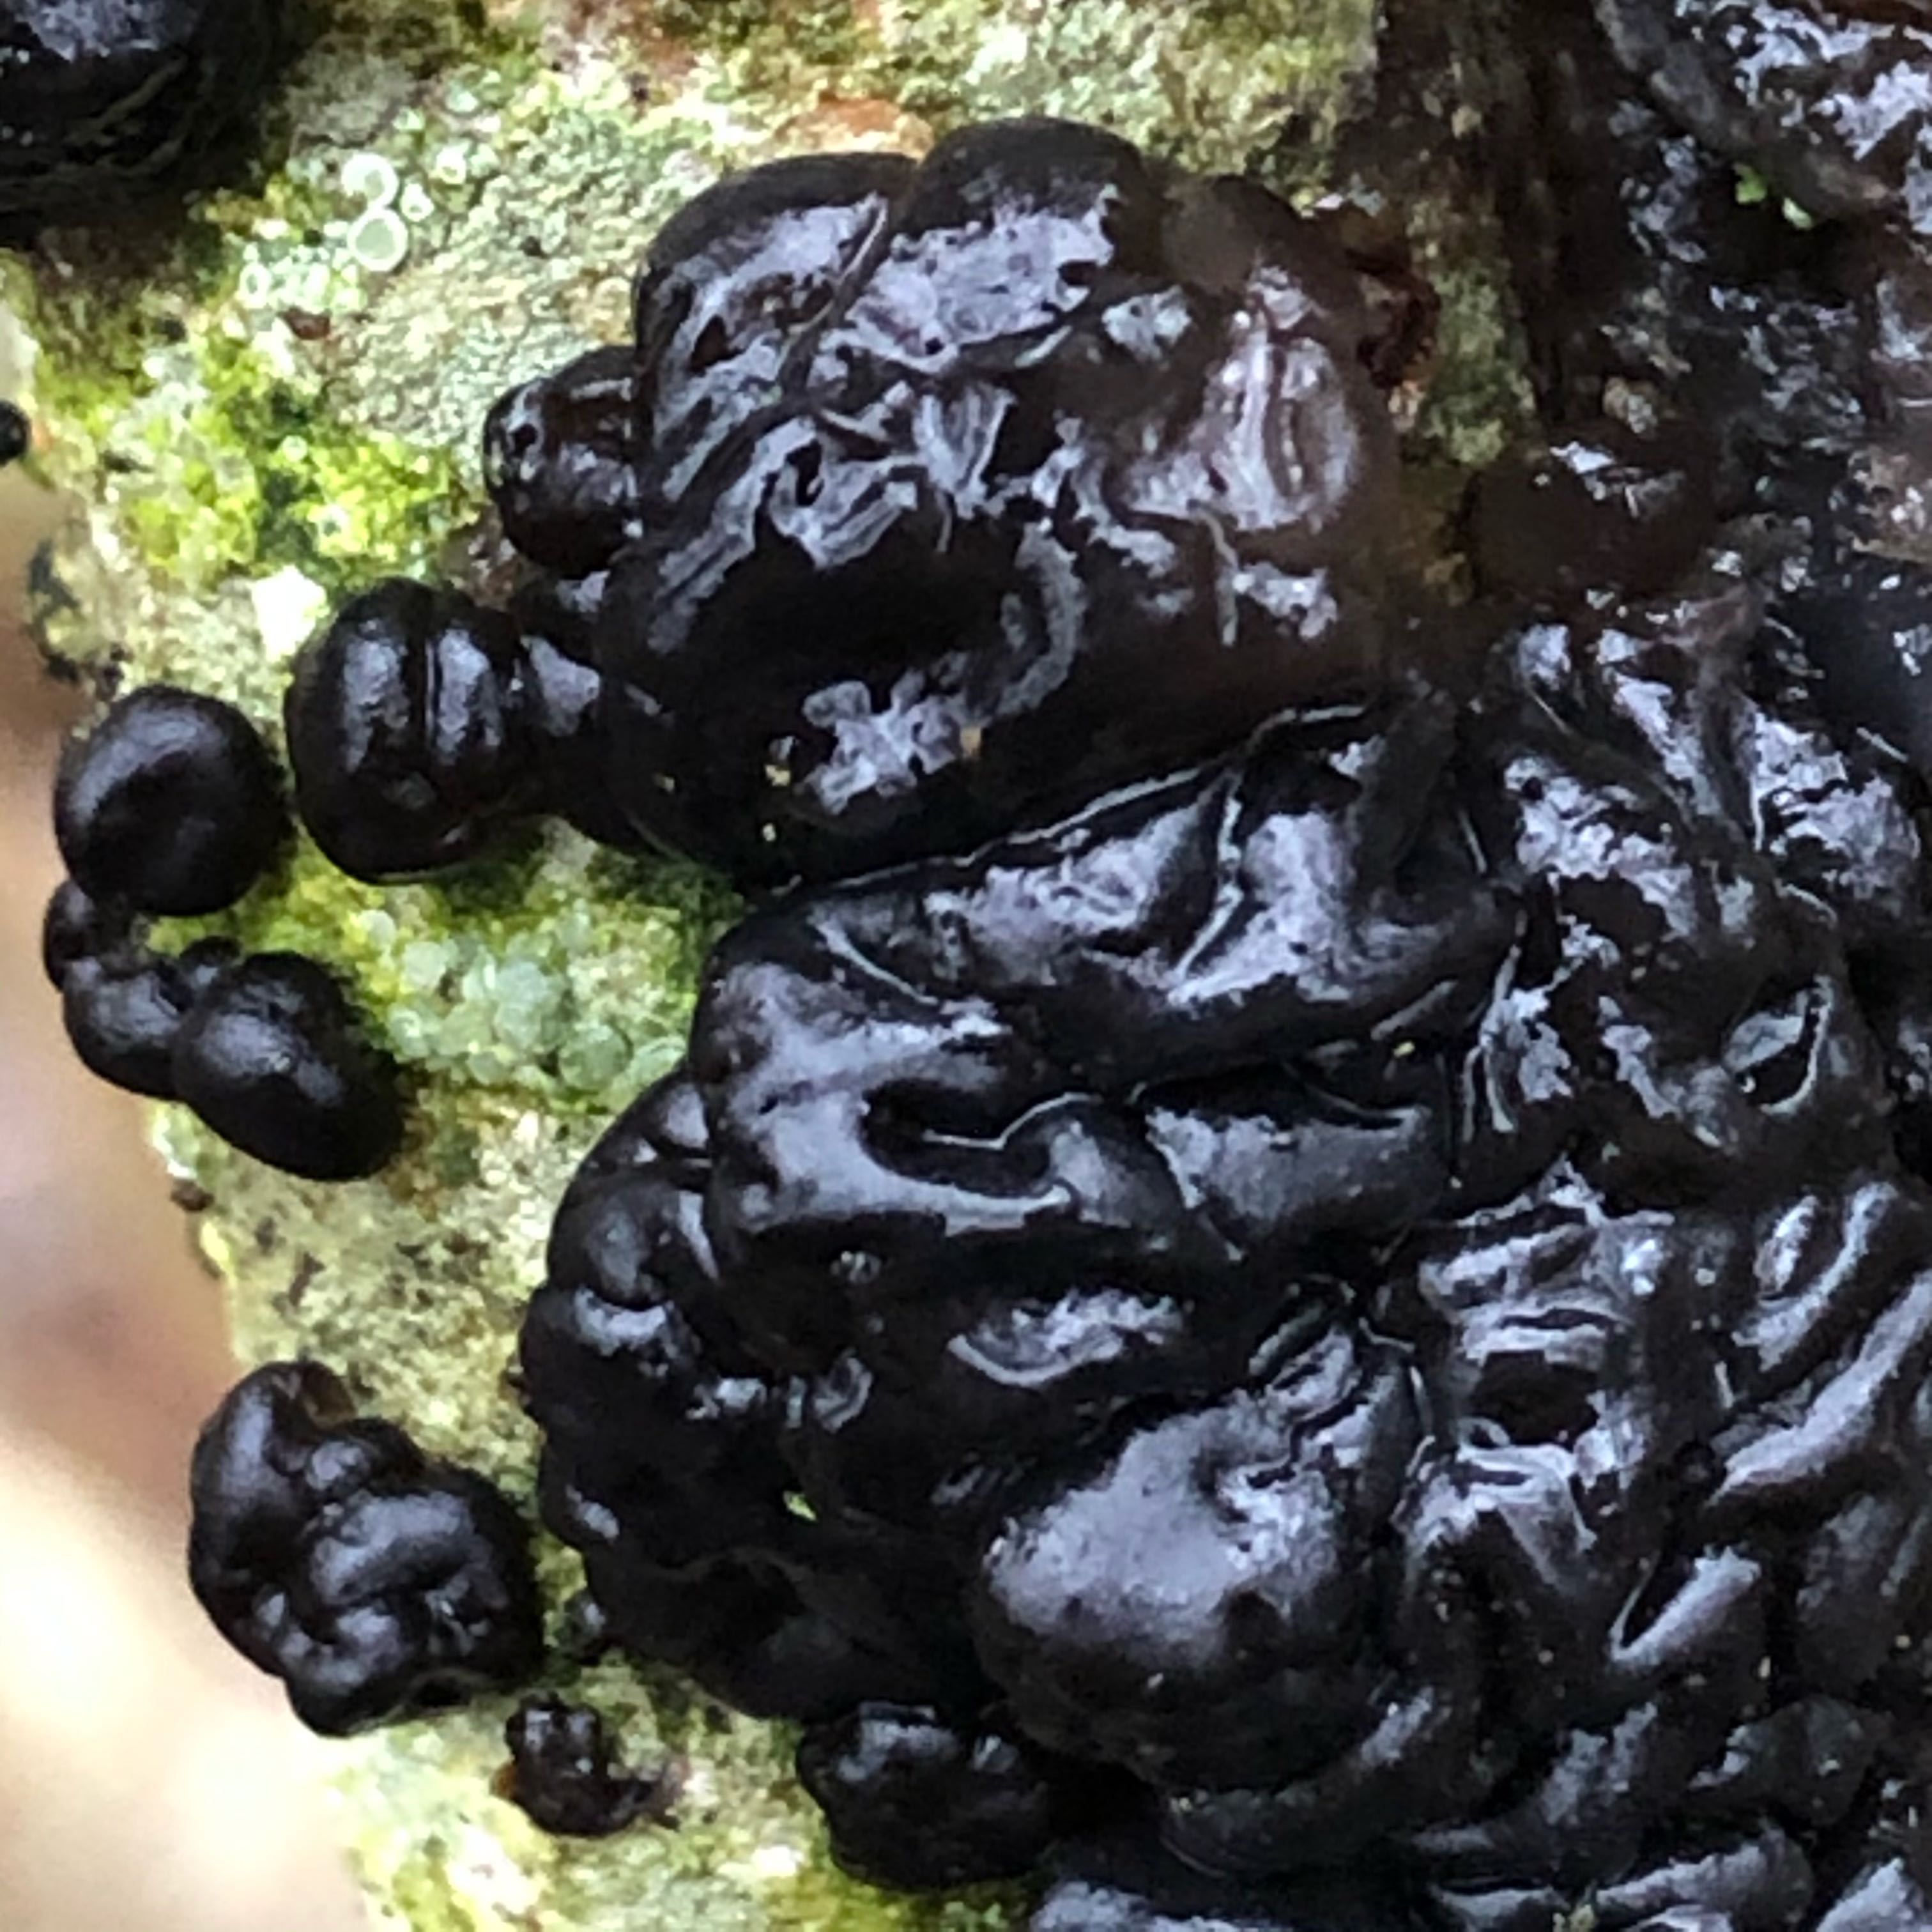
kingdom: Fungi
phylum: Basidiomycota
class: Agaricomycetes
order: Auriculariales
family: Auriculariaceae
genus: Exidia
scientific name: Exidia nigricans
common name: almindelig bævretop
